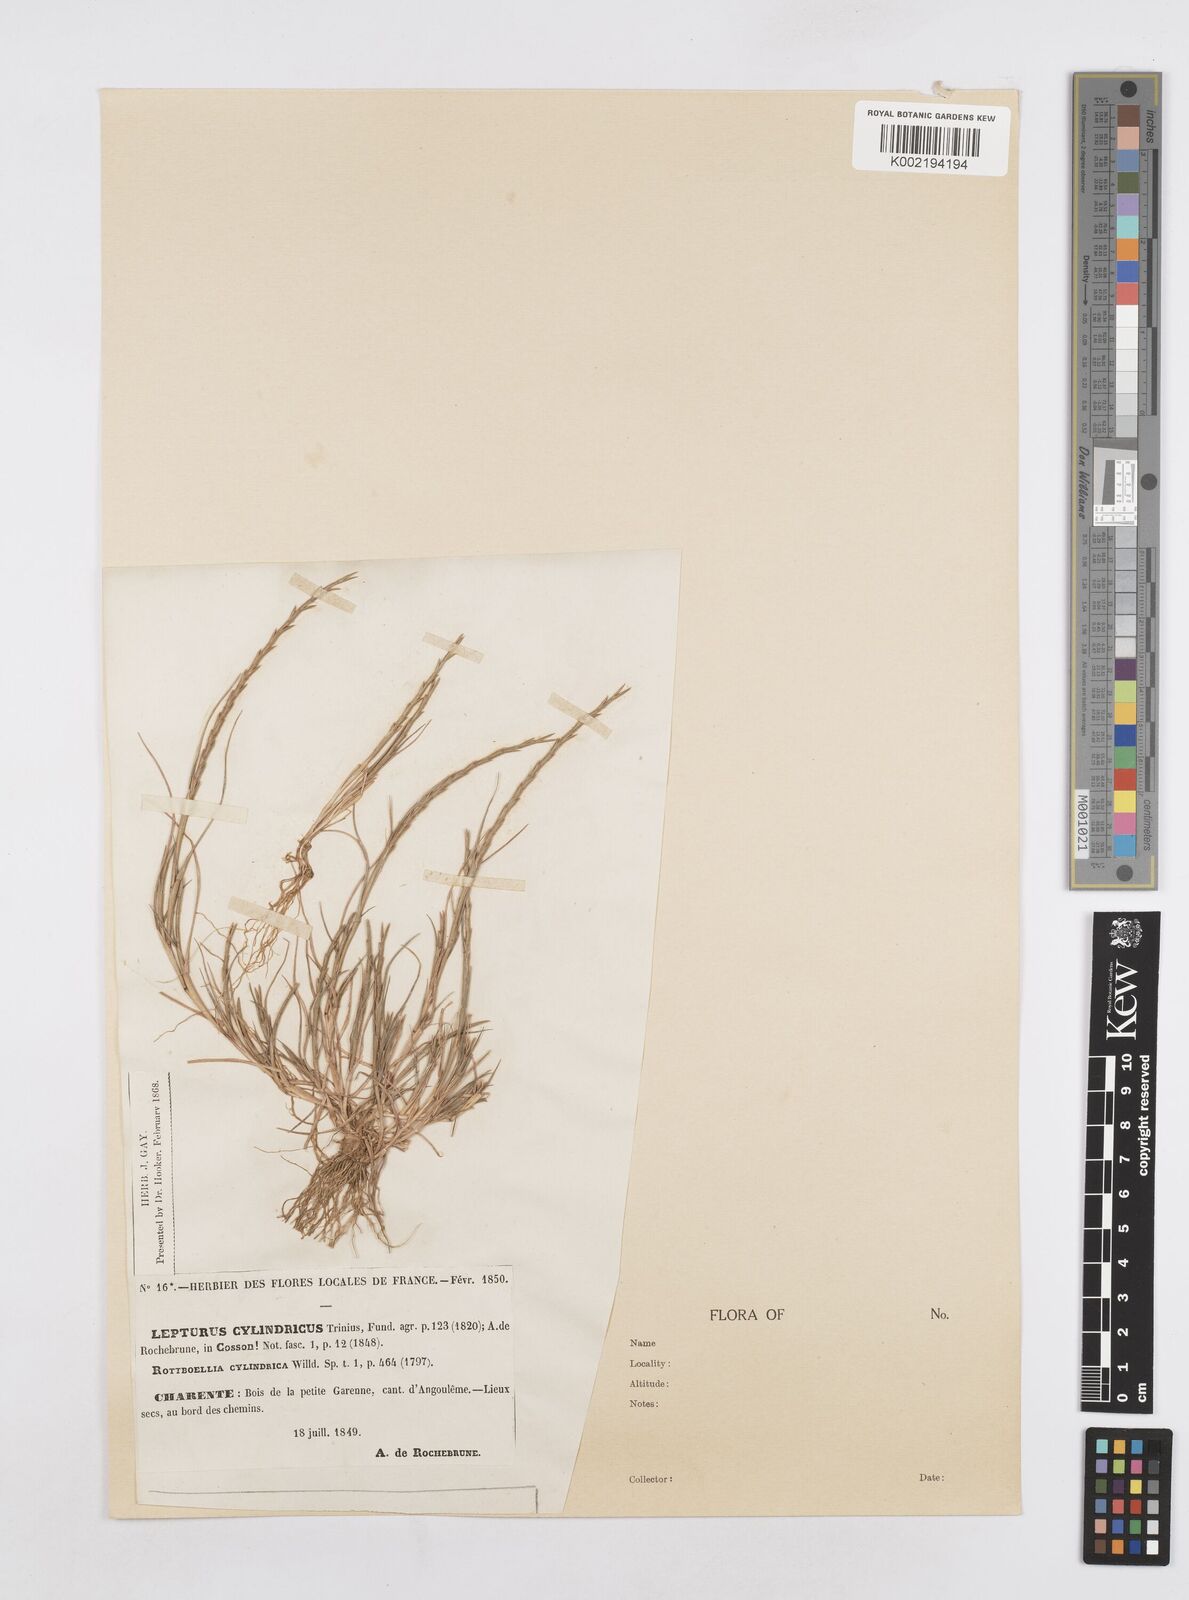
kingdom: Plantae
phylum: Tracheophyta
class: Liliopsida
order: Poales
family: Poaceae
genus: Parapholis
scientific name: Parapholis cylindrica
